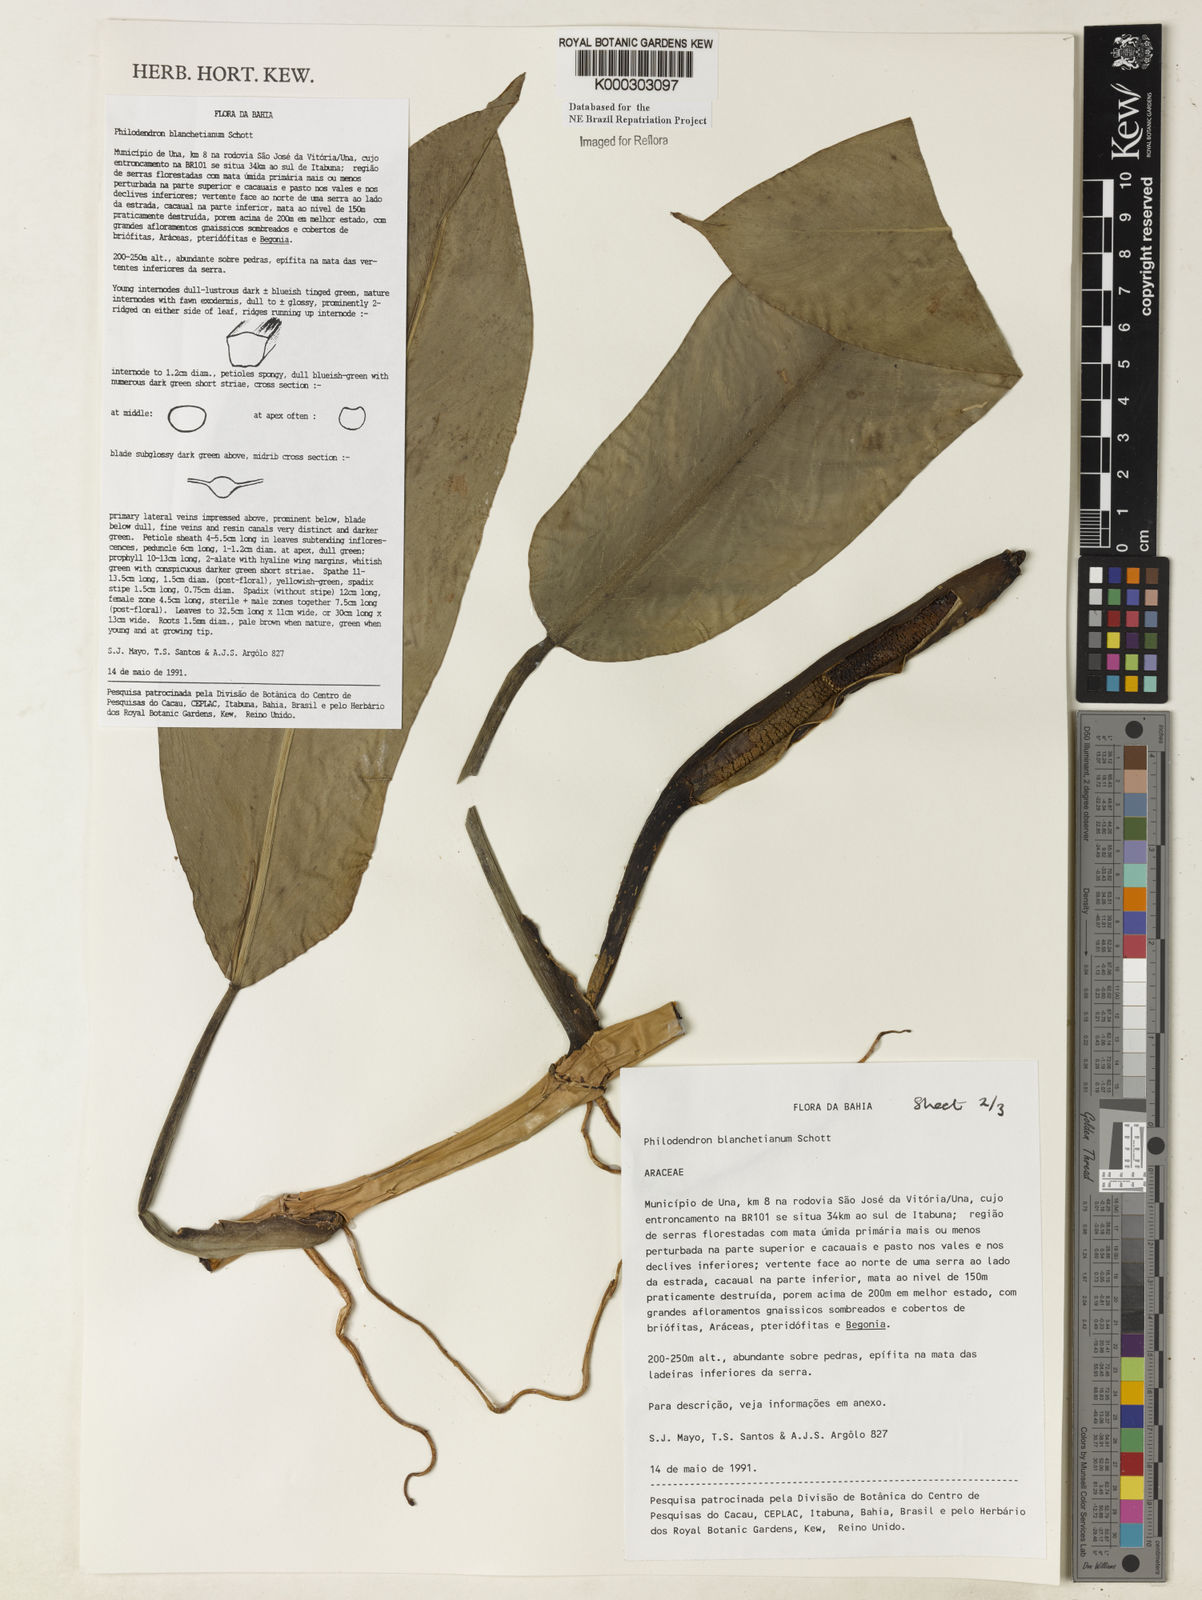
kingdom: Plantae
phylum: Tracheophyta
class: Liliopsida
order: Alismatales
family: Araceae
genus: Philodendron
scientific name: Philodendron blanchetianum
